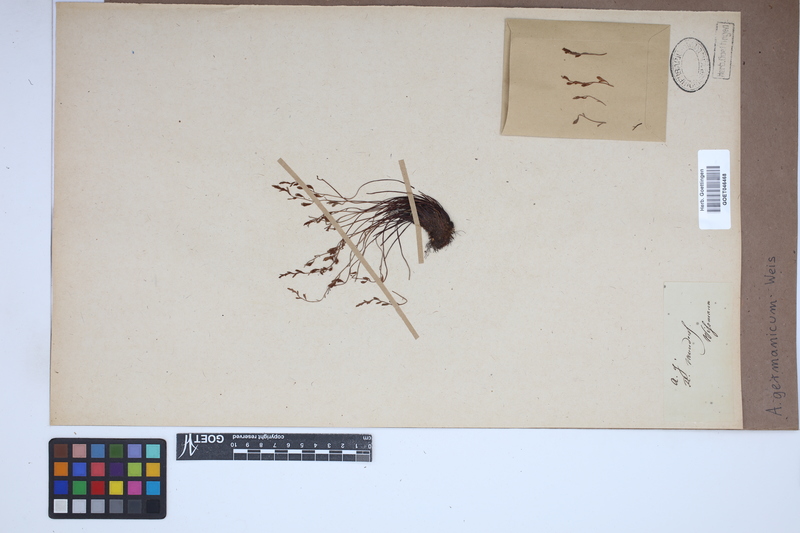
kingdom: Plantae
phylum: Tracheophyta
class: Polypodiopsida
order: Polypodiales
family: Aspleniaceae
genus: Asplenium
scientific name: Asplenium
